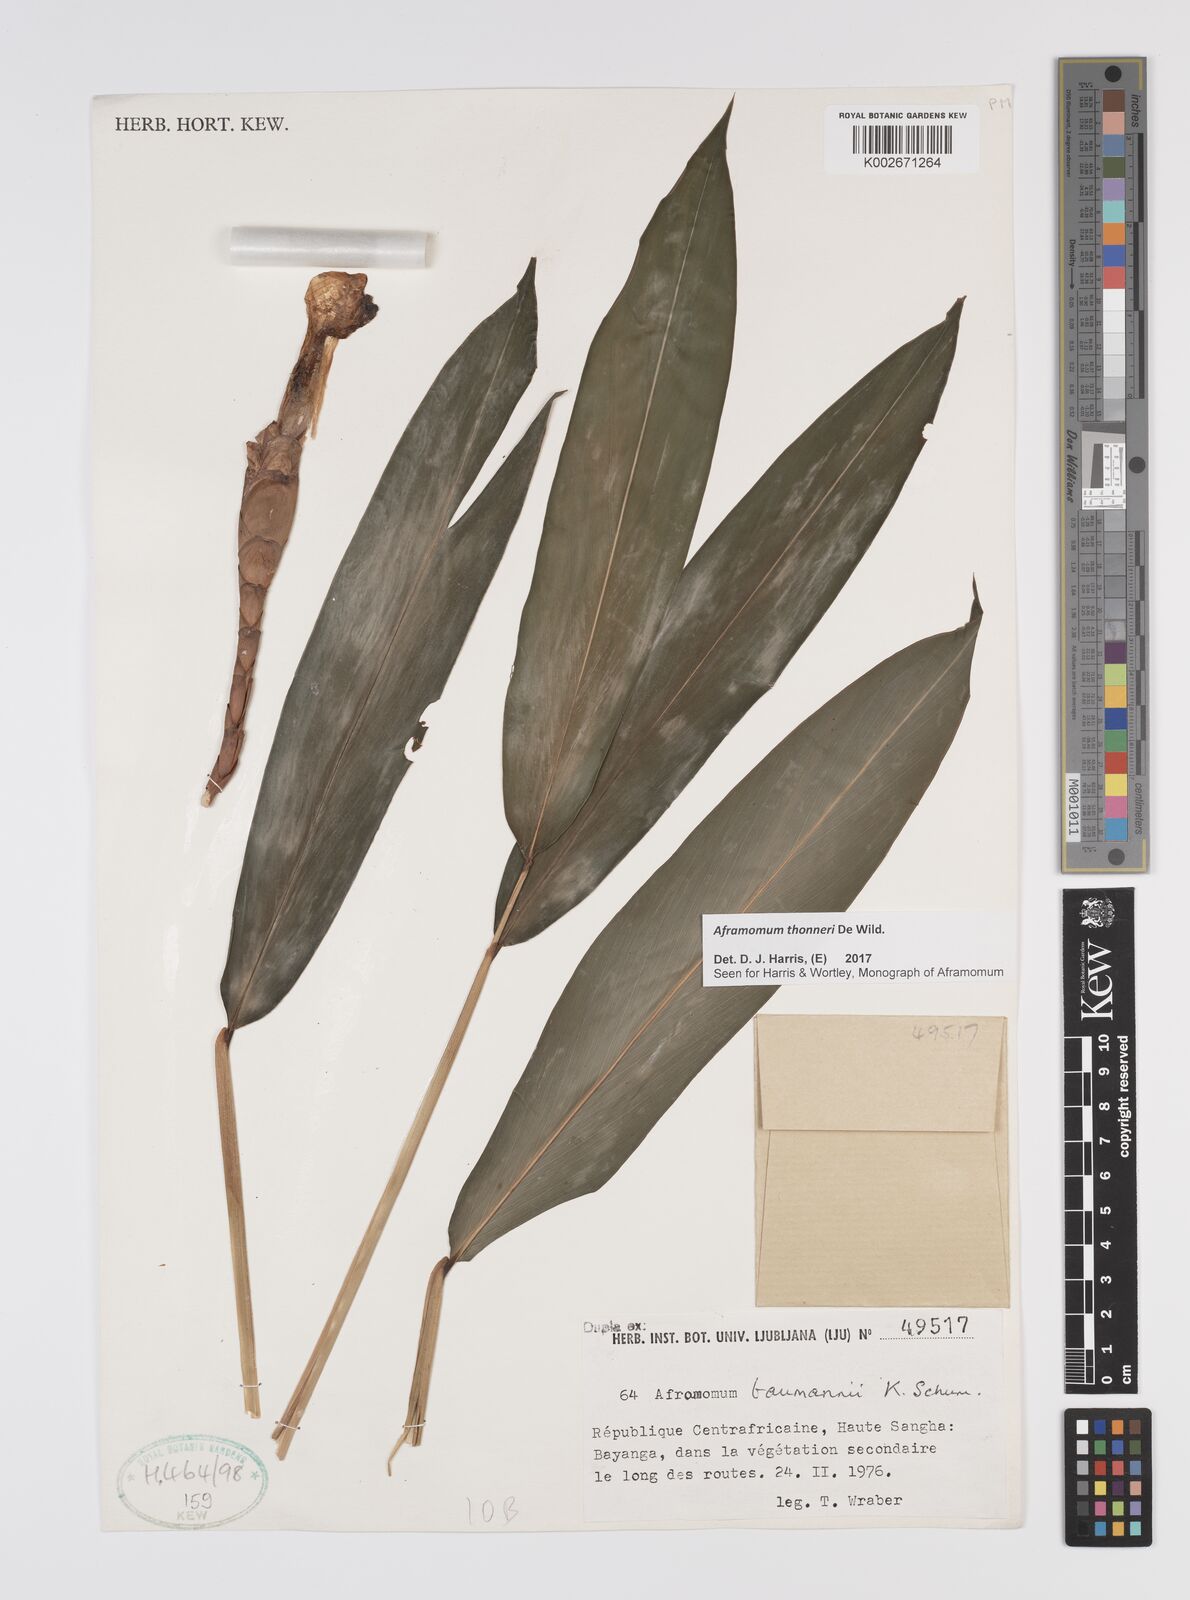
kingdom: Plantae
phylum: Tracheophyta
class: Liliopsida
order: Zingiberales
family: Zingiberaceae
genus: Aframomum
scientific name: Aframomum thonneri
